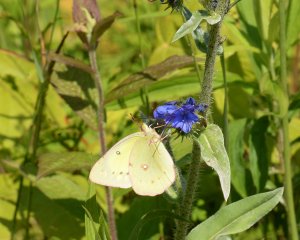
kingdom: Animalia
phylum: Arthropoda
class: Insecta
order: Lepidoptera
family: Pieridae
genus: Colias
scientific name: Colias philodice
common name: Clouded Sulphur
